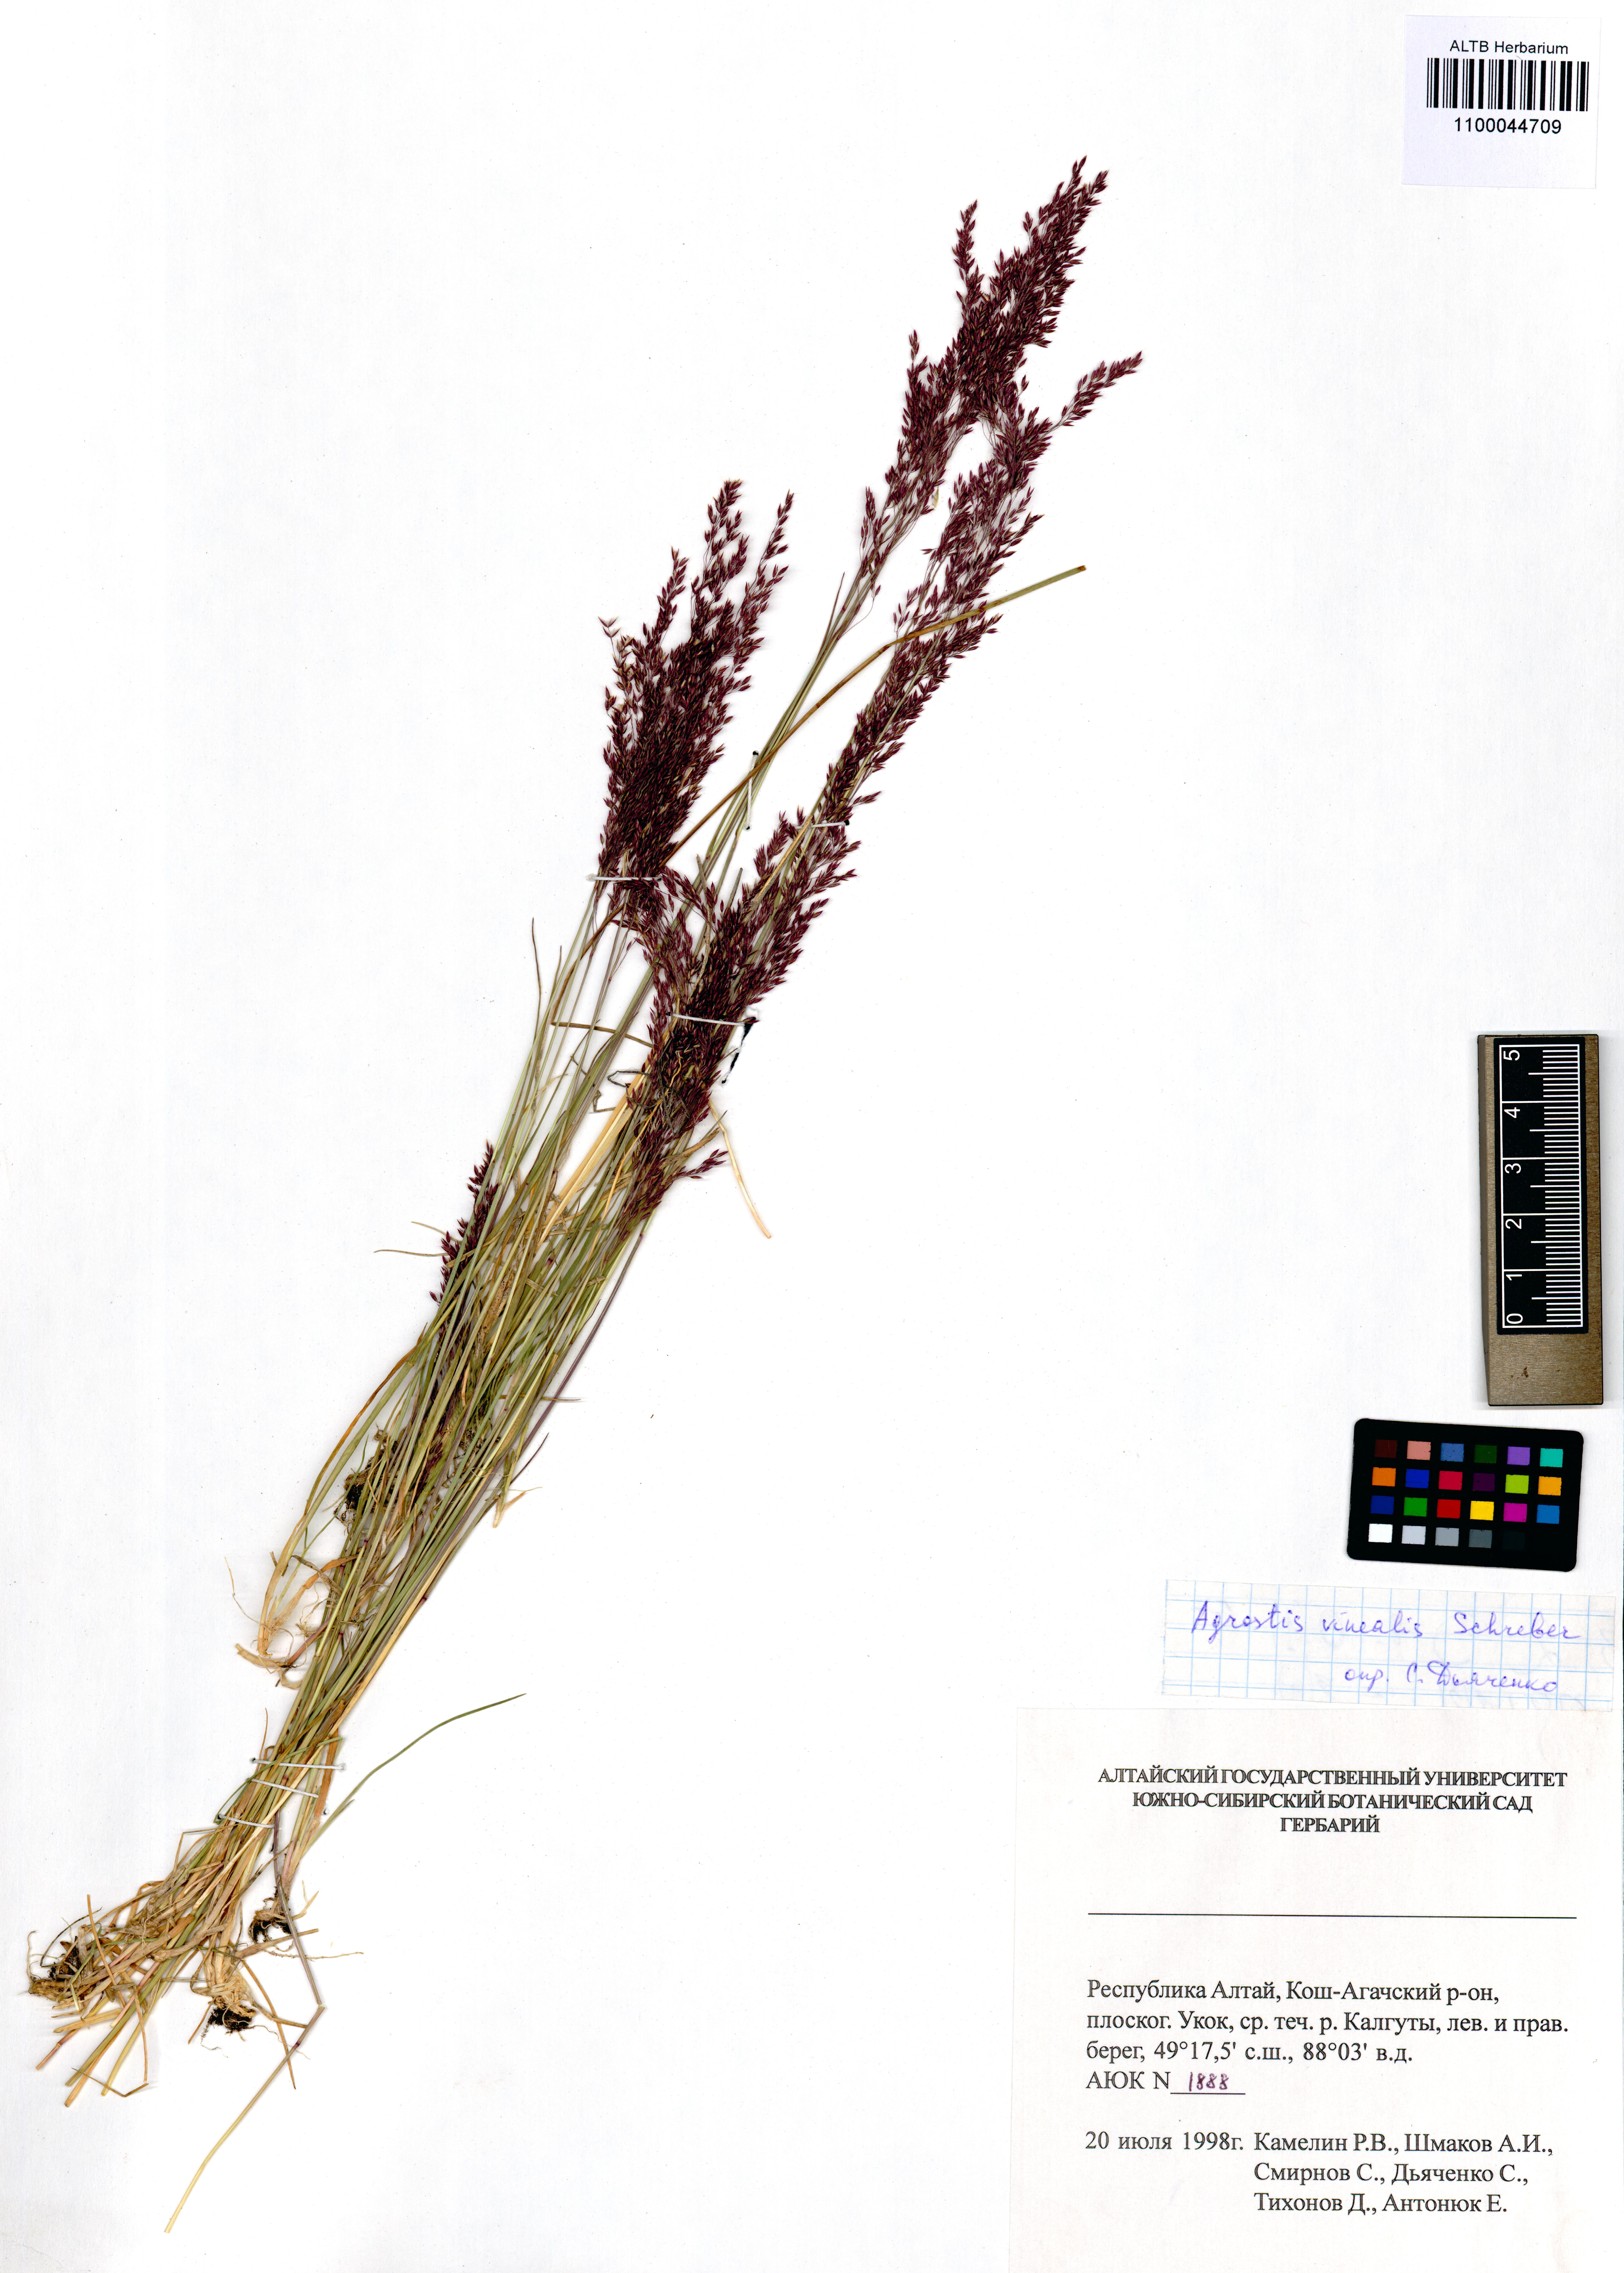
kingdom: Plantae
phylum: Tracheophyta
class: Liliopsida
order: Poales
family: Poaceae
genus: Agrostis
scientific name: Agrostis vinealis
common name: Brown bent
